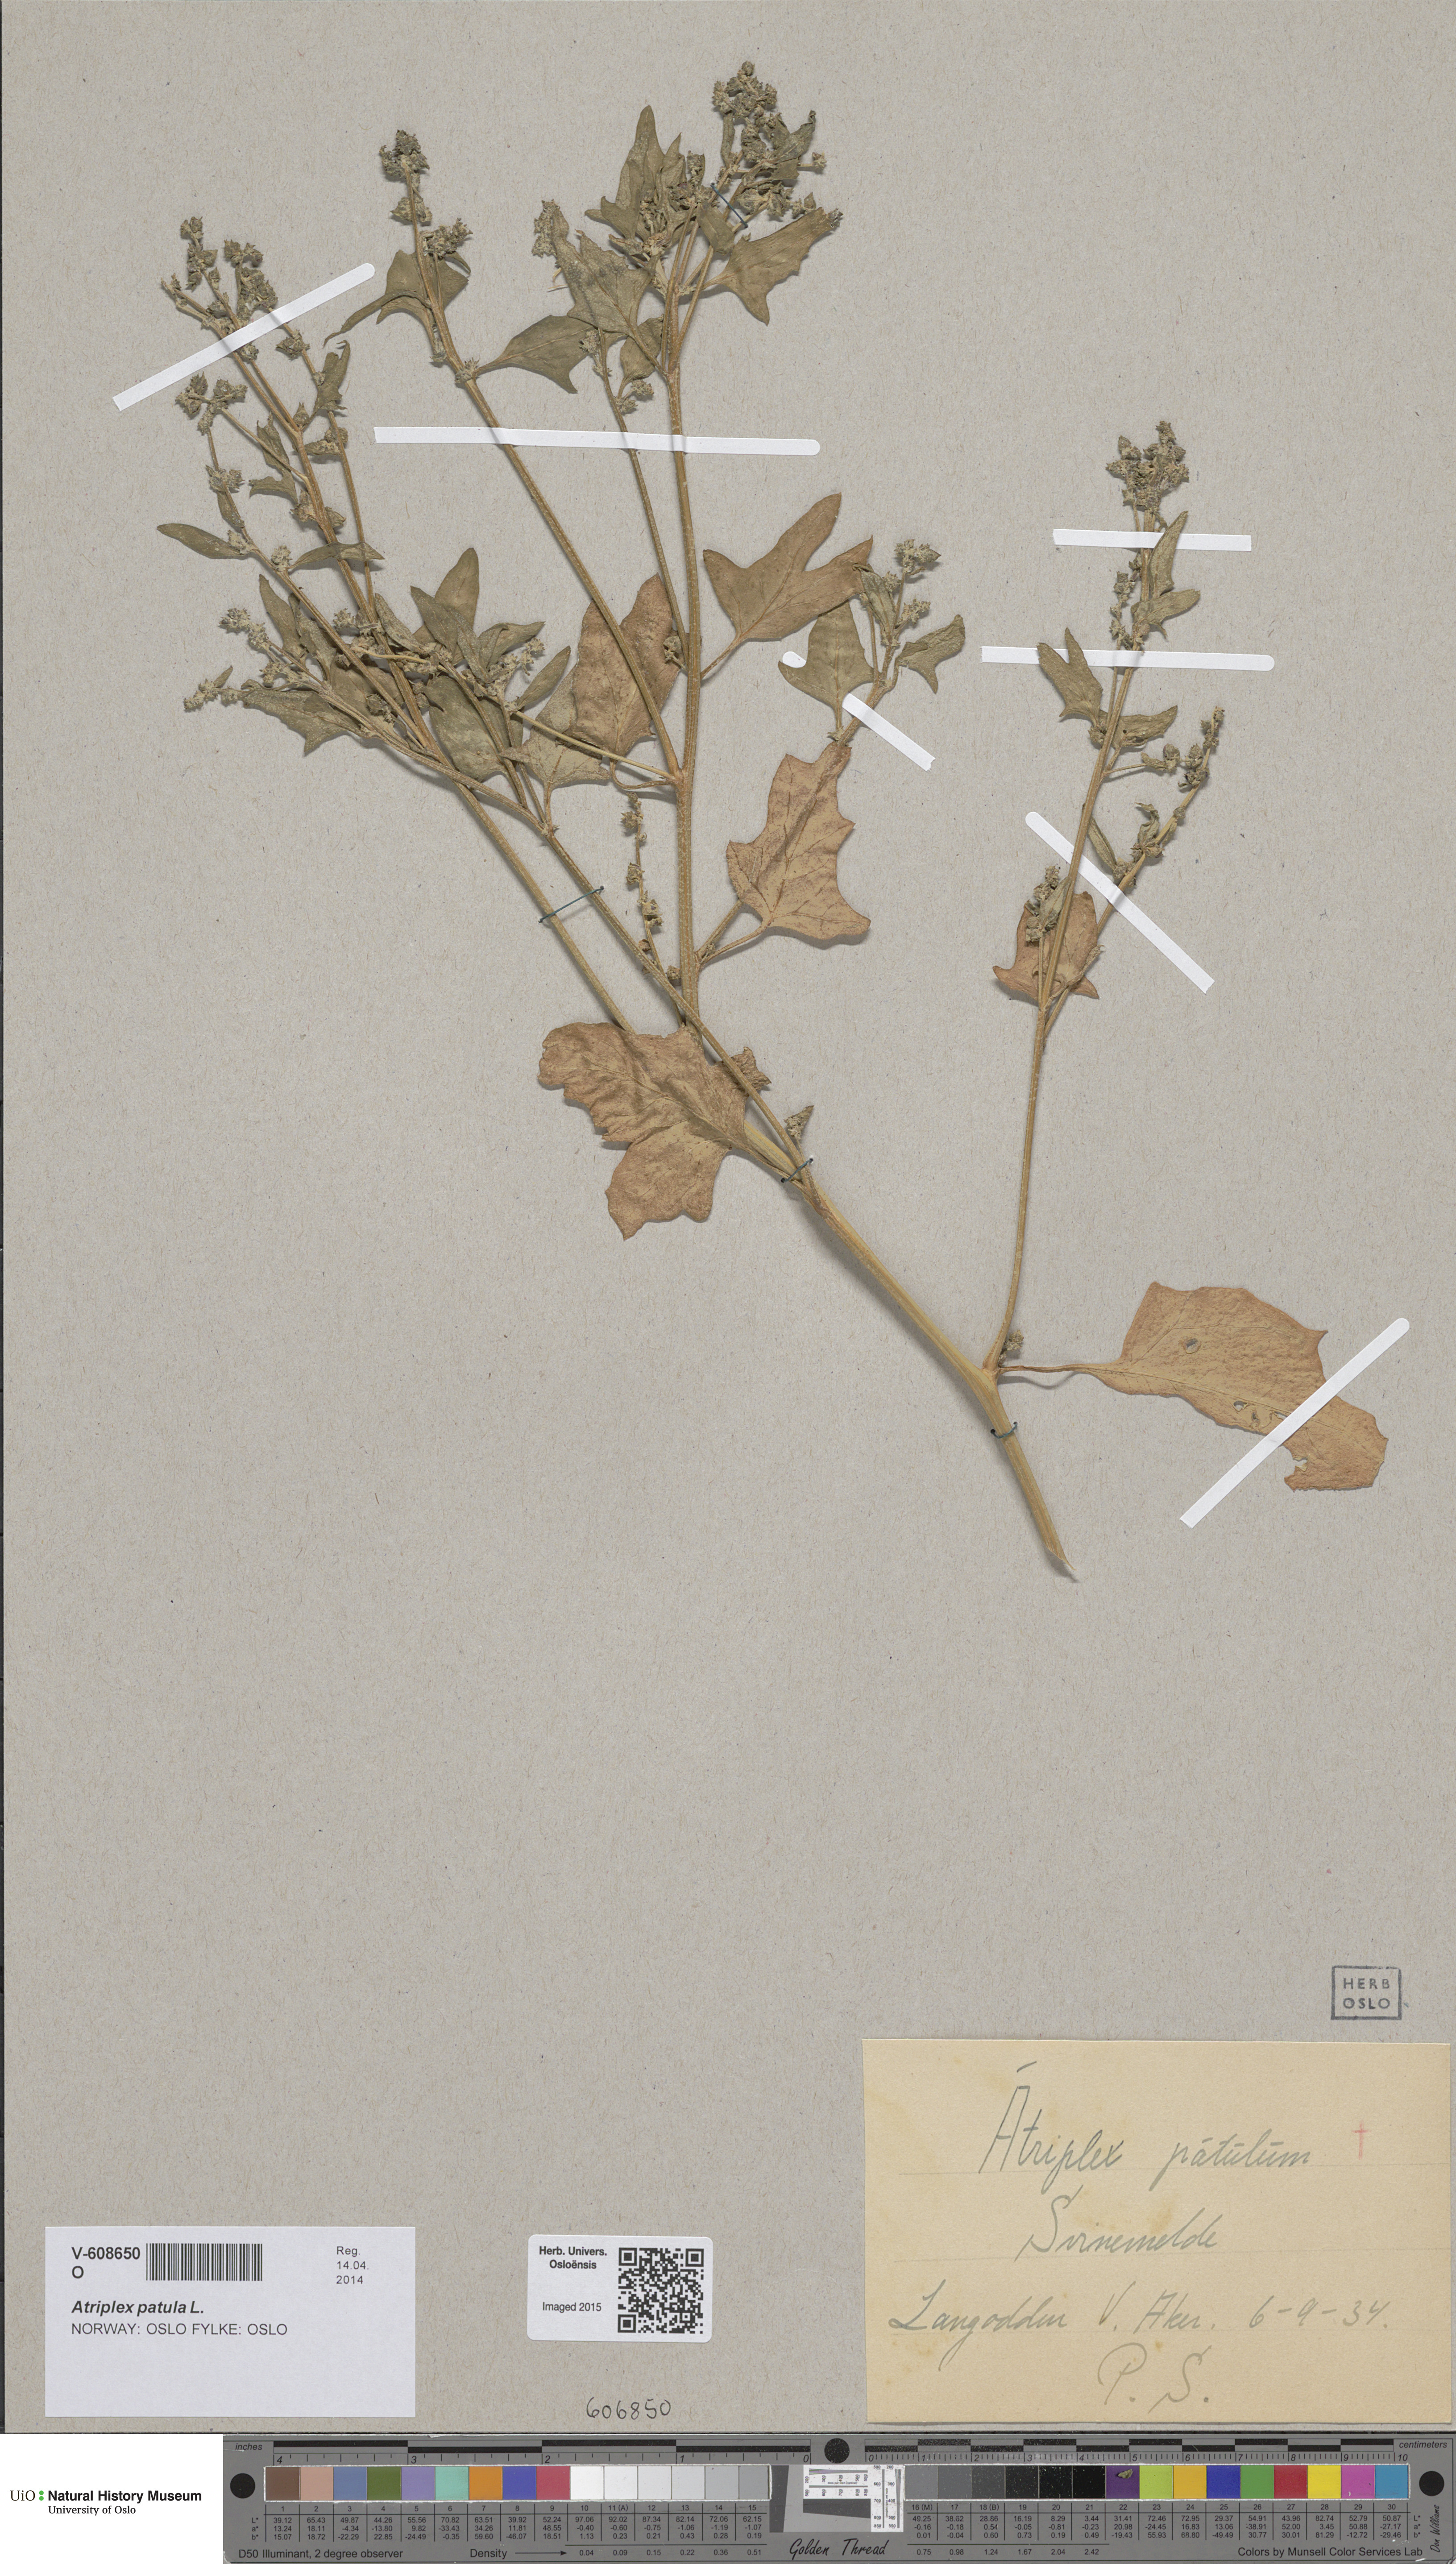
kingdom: Plantae
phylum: Tracheophyta
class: Magnoliopsida
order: Caryophyllales
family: Amaranthaceae
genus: Atriplex
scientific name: Atriplex prostrata
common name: Spear-leaved orache
